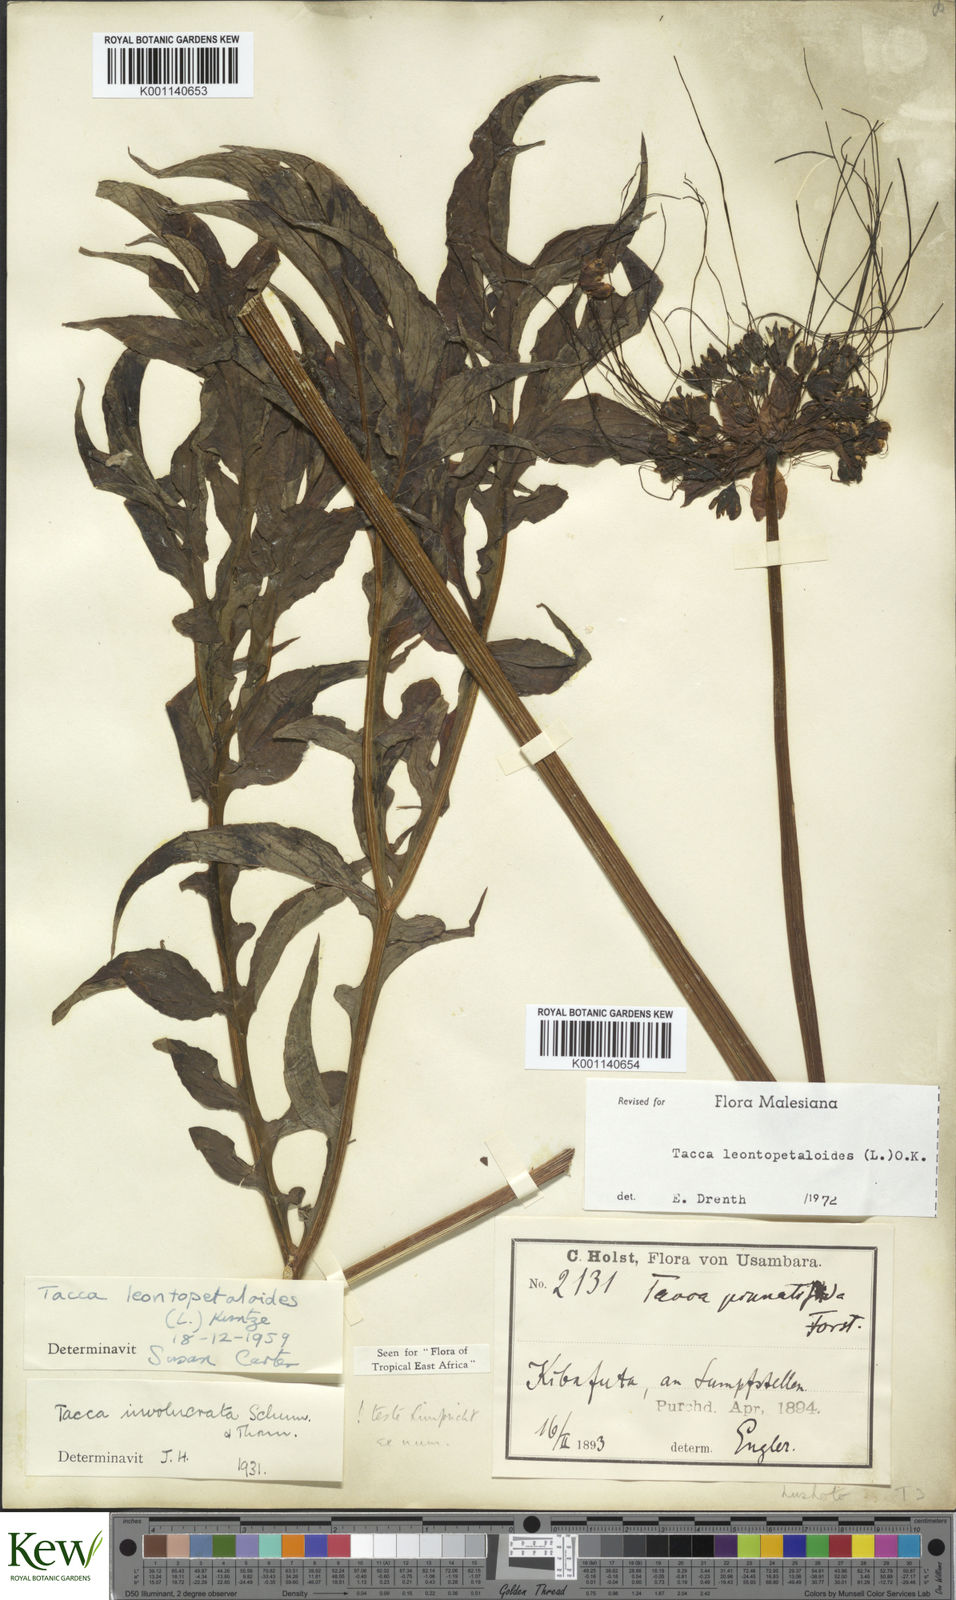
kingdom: Plantae
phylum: Tracheophyta
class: Liliopsida
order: Dioscoreales
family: Dioscoreaceae
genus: Tacca
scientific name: Tacca leontopetaloides
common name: Arrowroot
